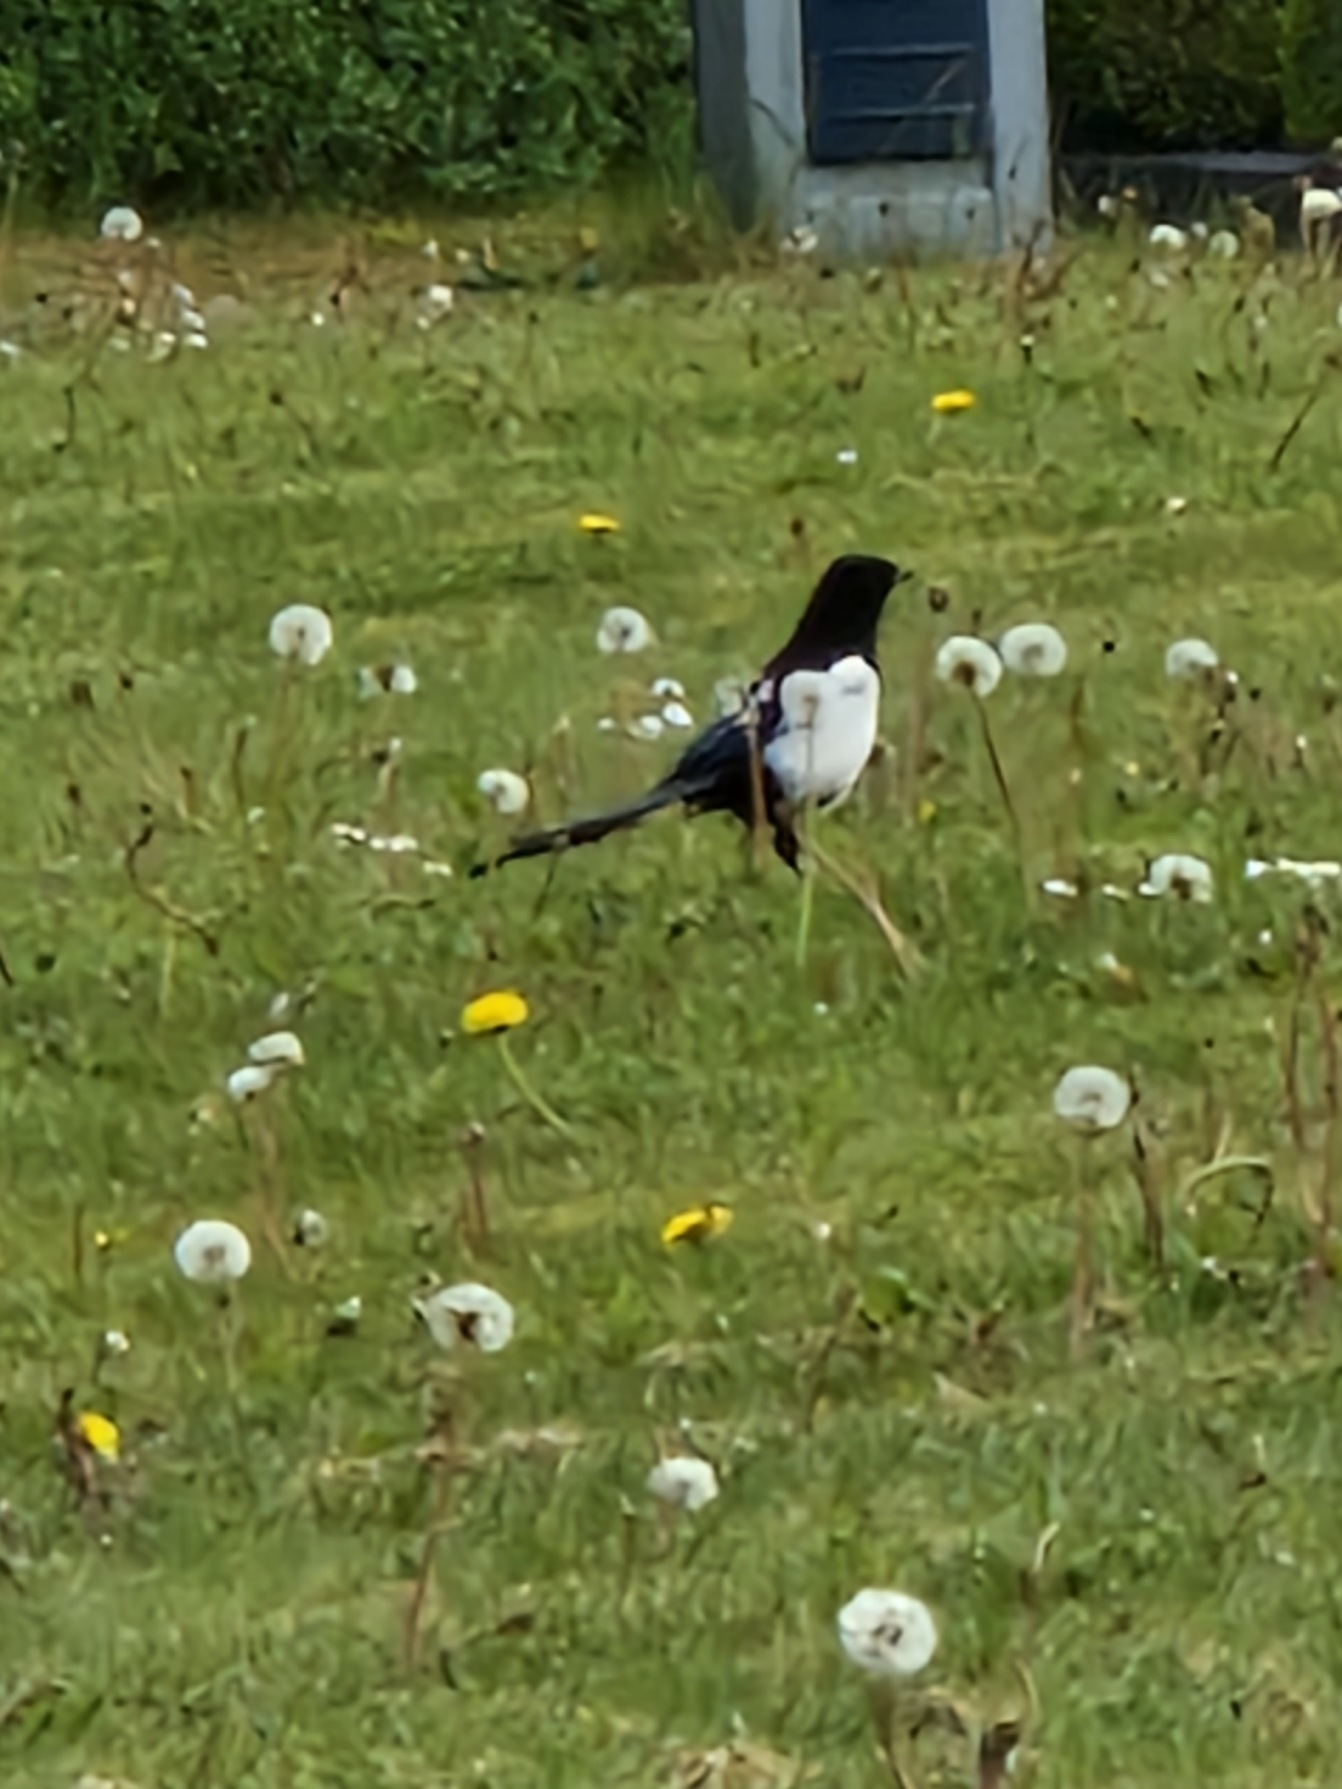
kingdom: Animalia
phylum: Chordata
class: Aves
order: Passeriformes
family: Corvidae
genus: Pica
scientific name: Pica pica
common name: Husskade
